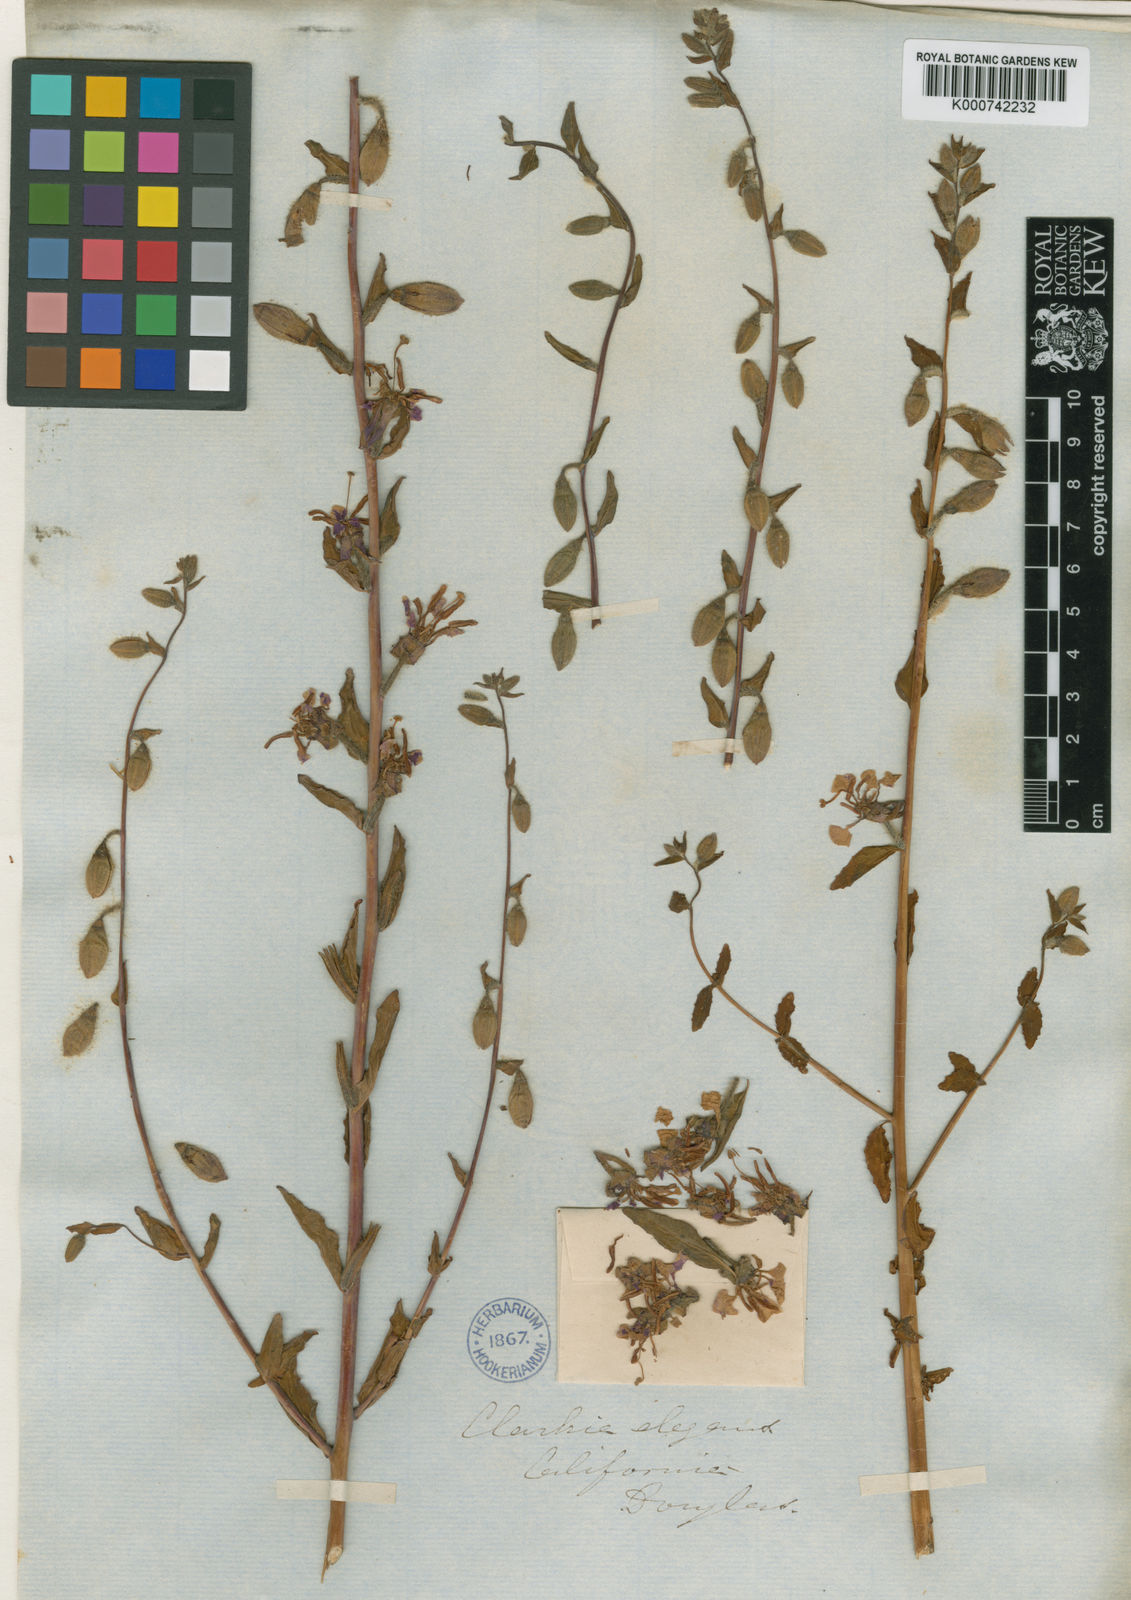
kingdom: Plantae
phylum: Tracheophyta
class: Magnoliopsida
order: Myrtales
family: Onagraceae
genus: Clarkia
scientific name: Clarkia unguiculata
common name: Clarkia
